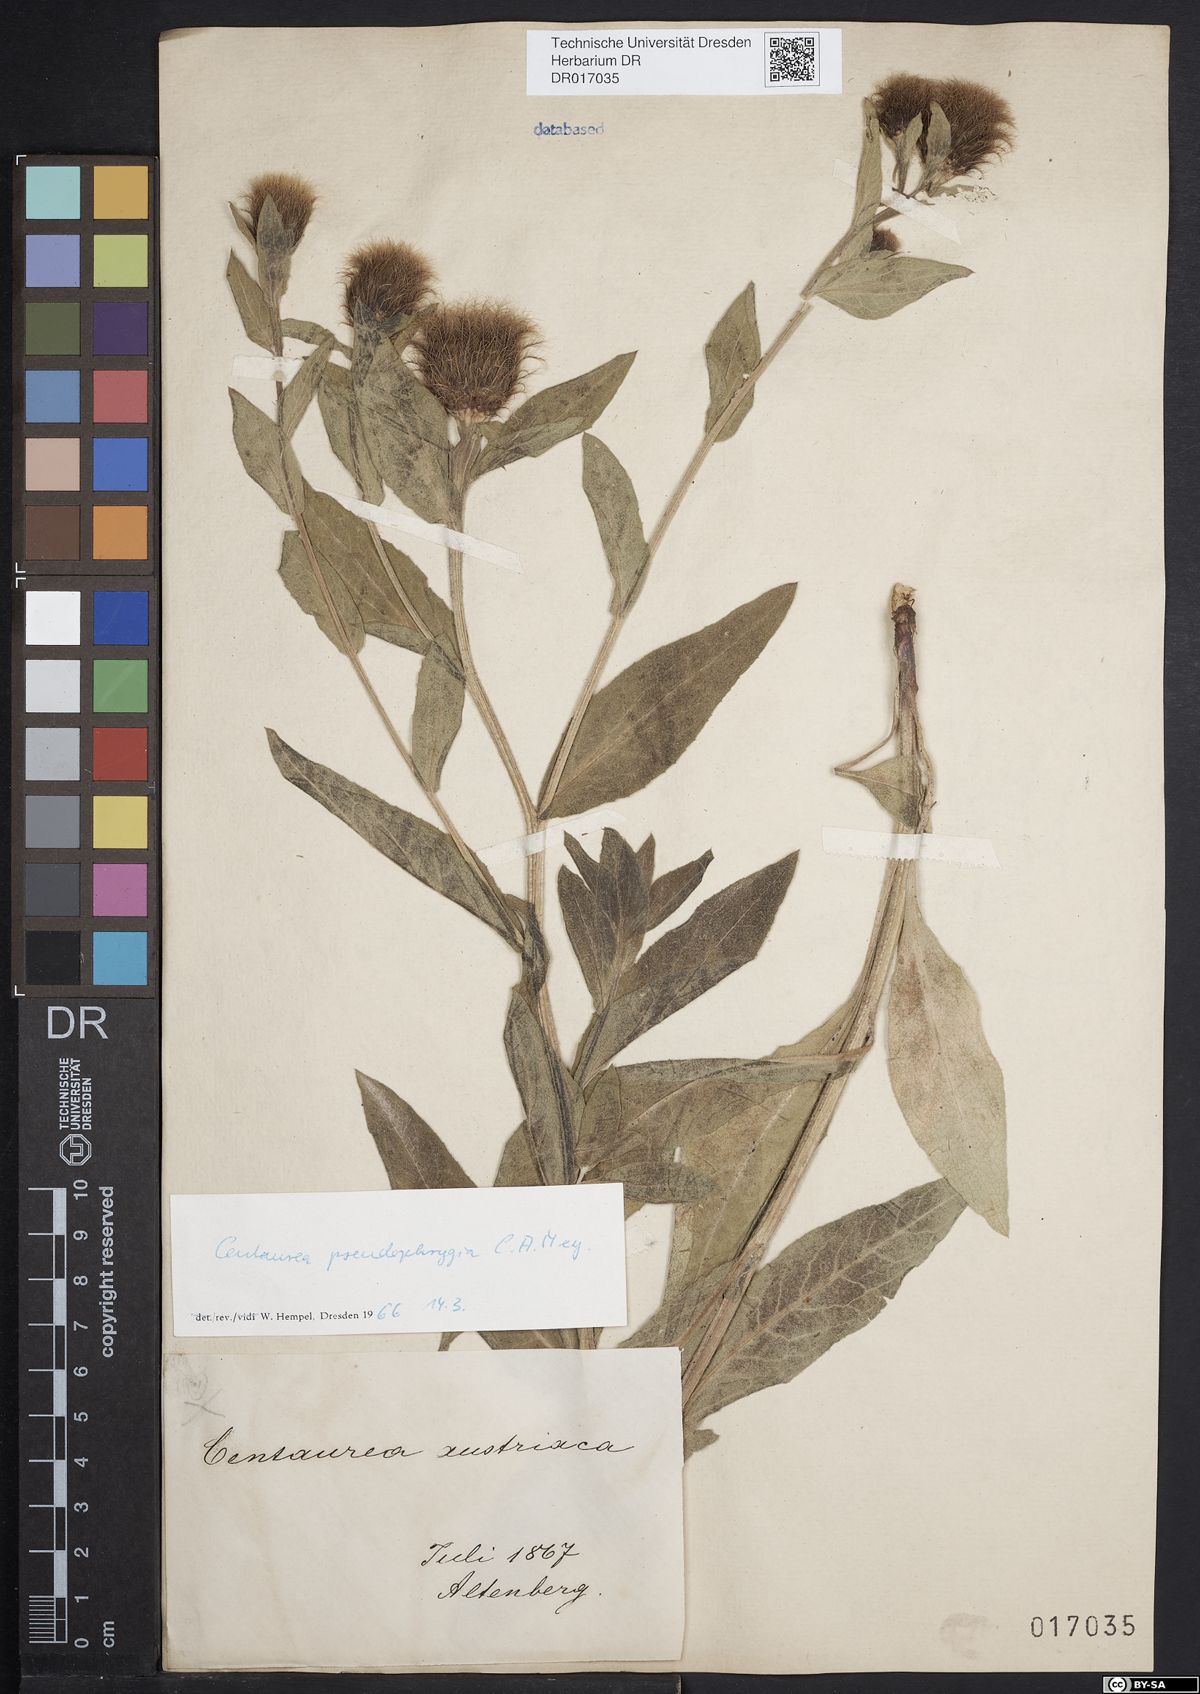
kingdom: Plantae
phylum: Tracheophyta
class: Magnoliopsida
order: Asterales
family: Asteraceae
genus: Centaurea
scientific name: Centaurea pseudophrygia
